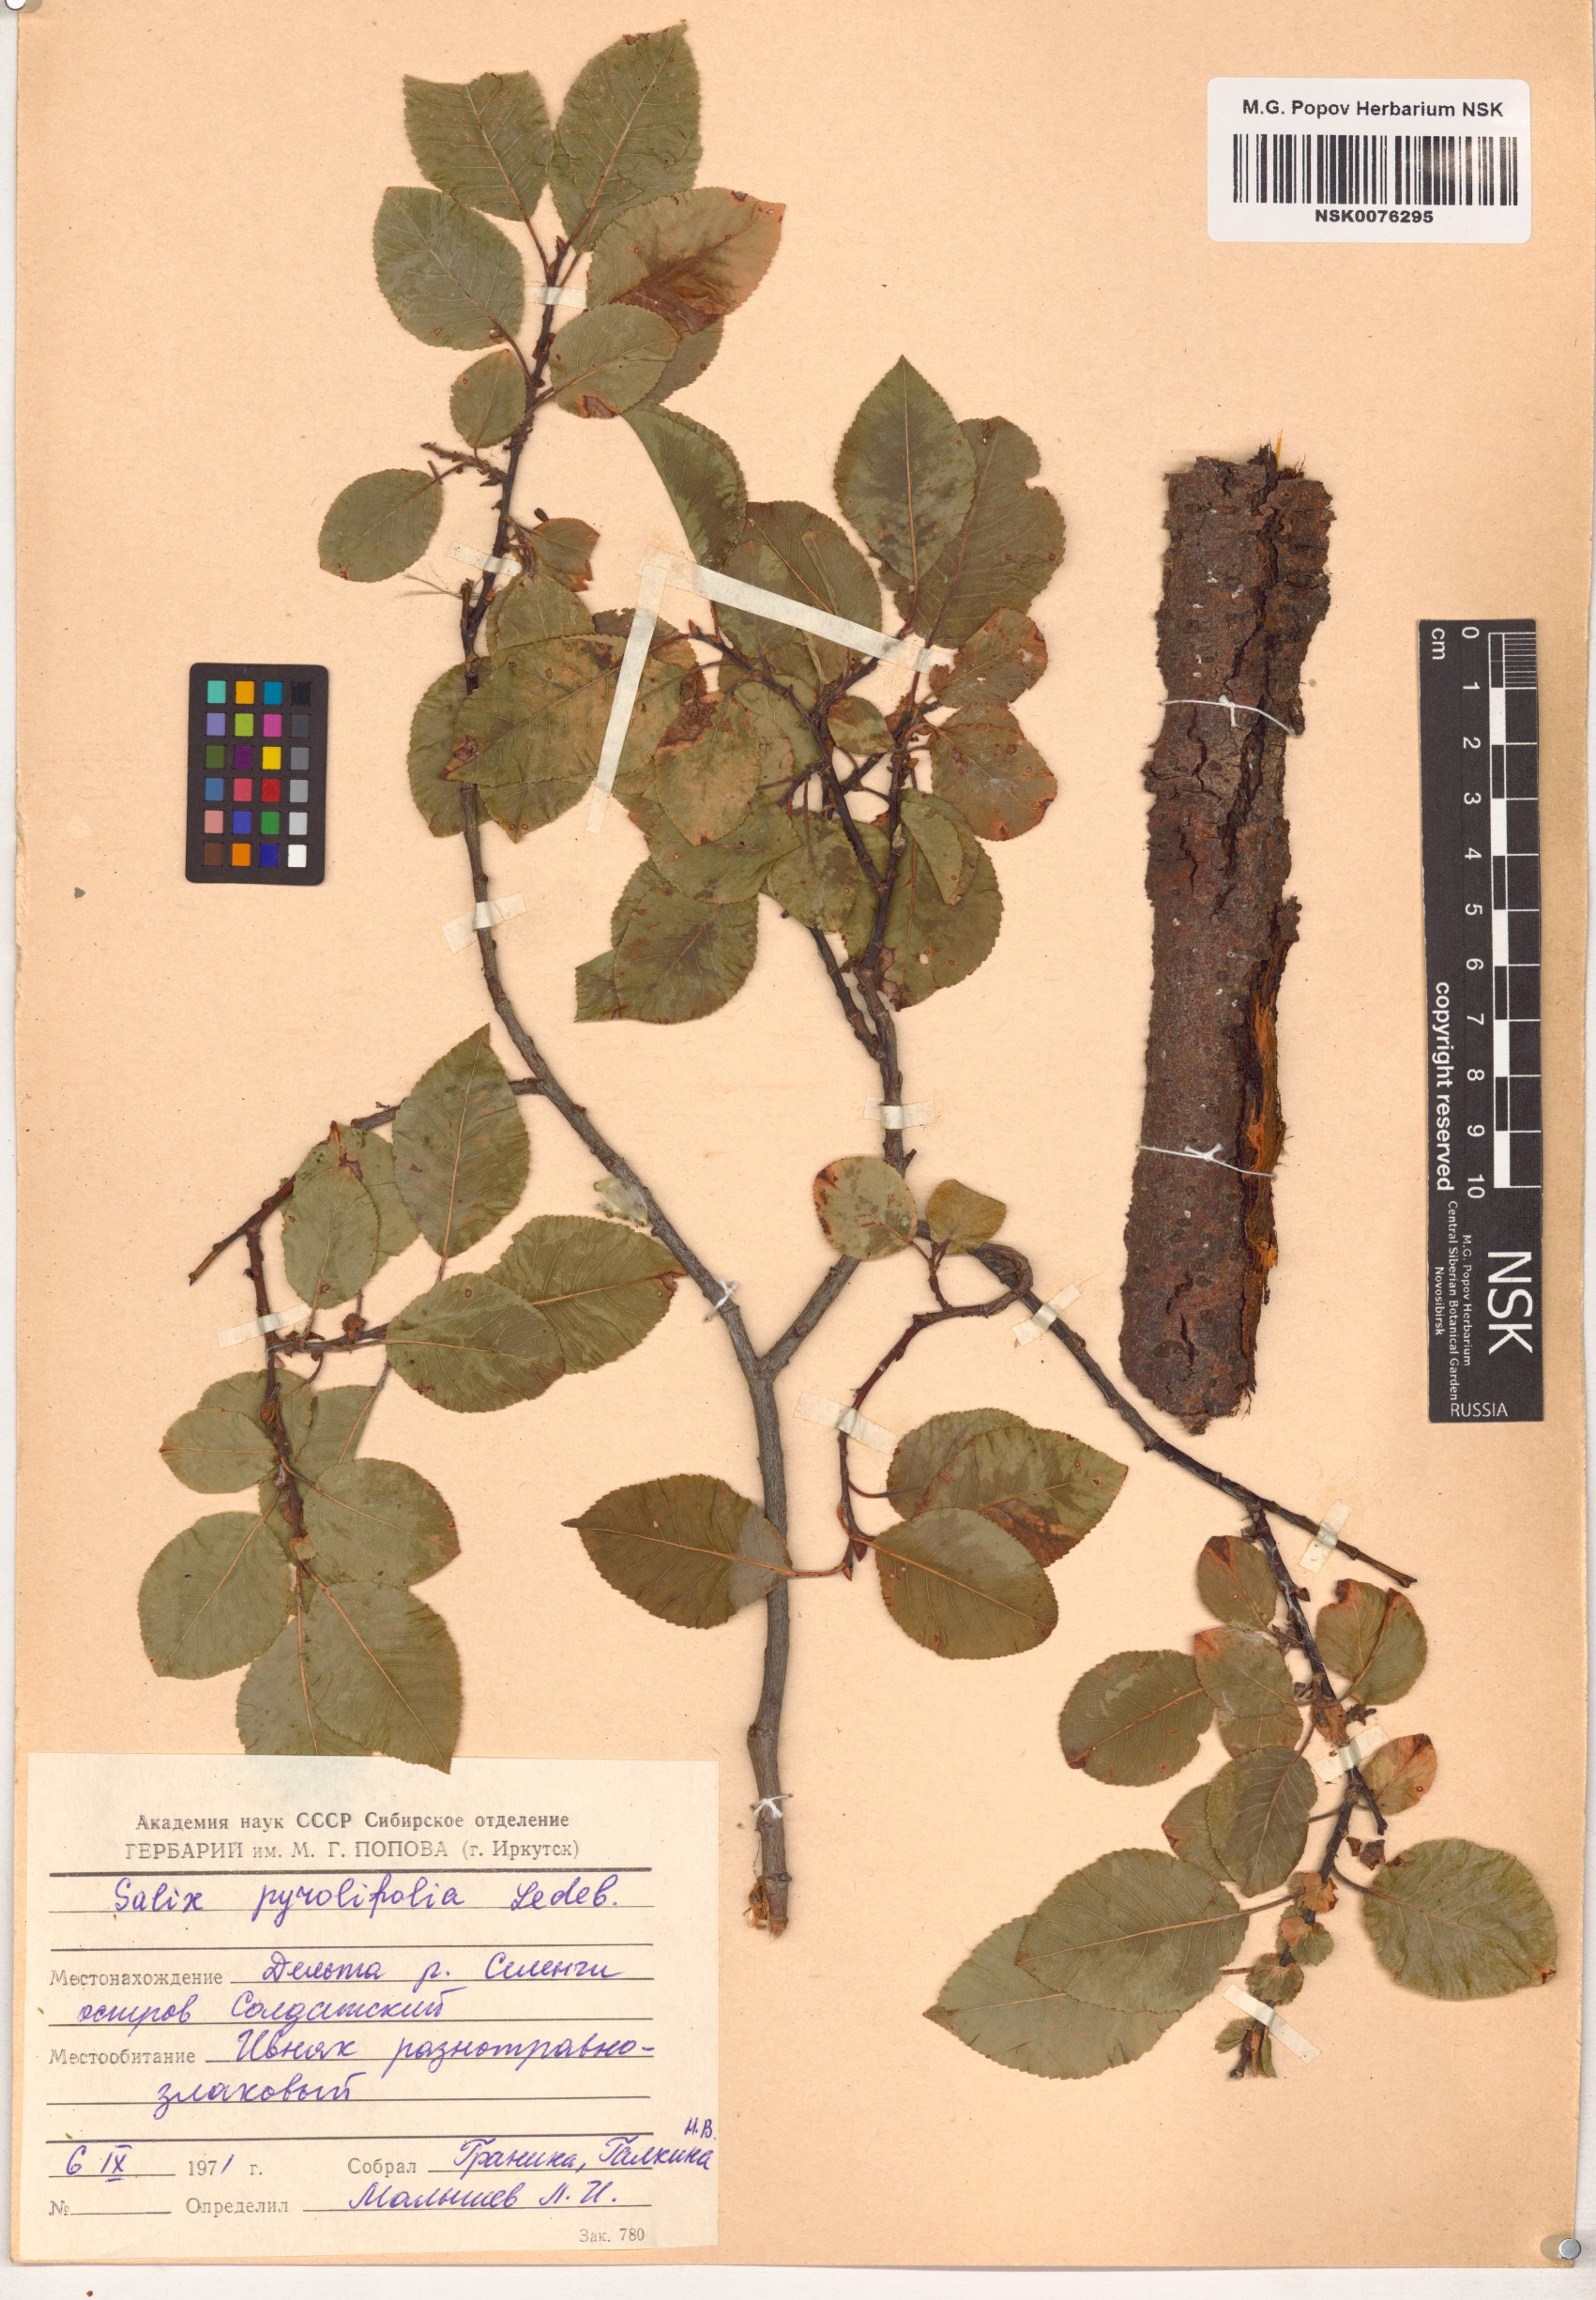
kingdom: Plantae
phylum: Tracheophyta
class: Magnoliopsida
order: Malpighiales
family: Salicaceae
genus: Salix
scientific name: Salix pyrolifolia
